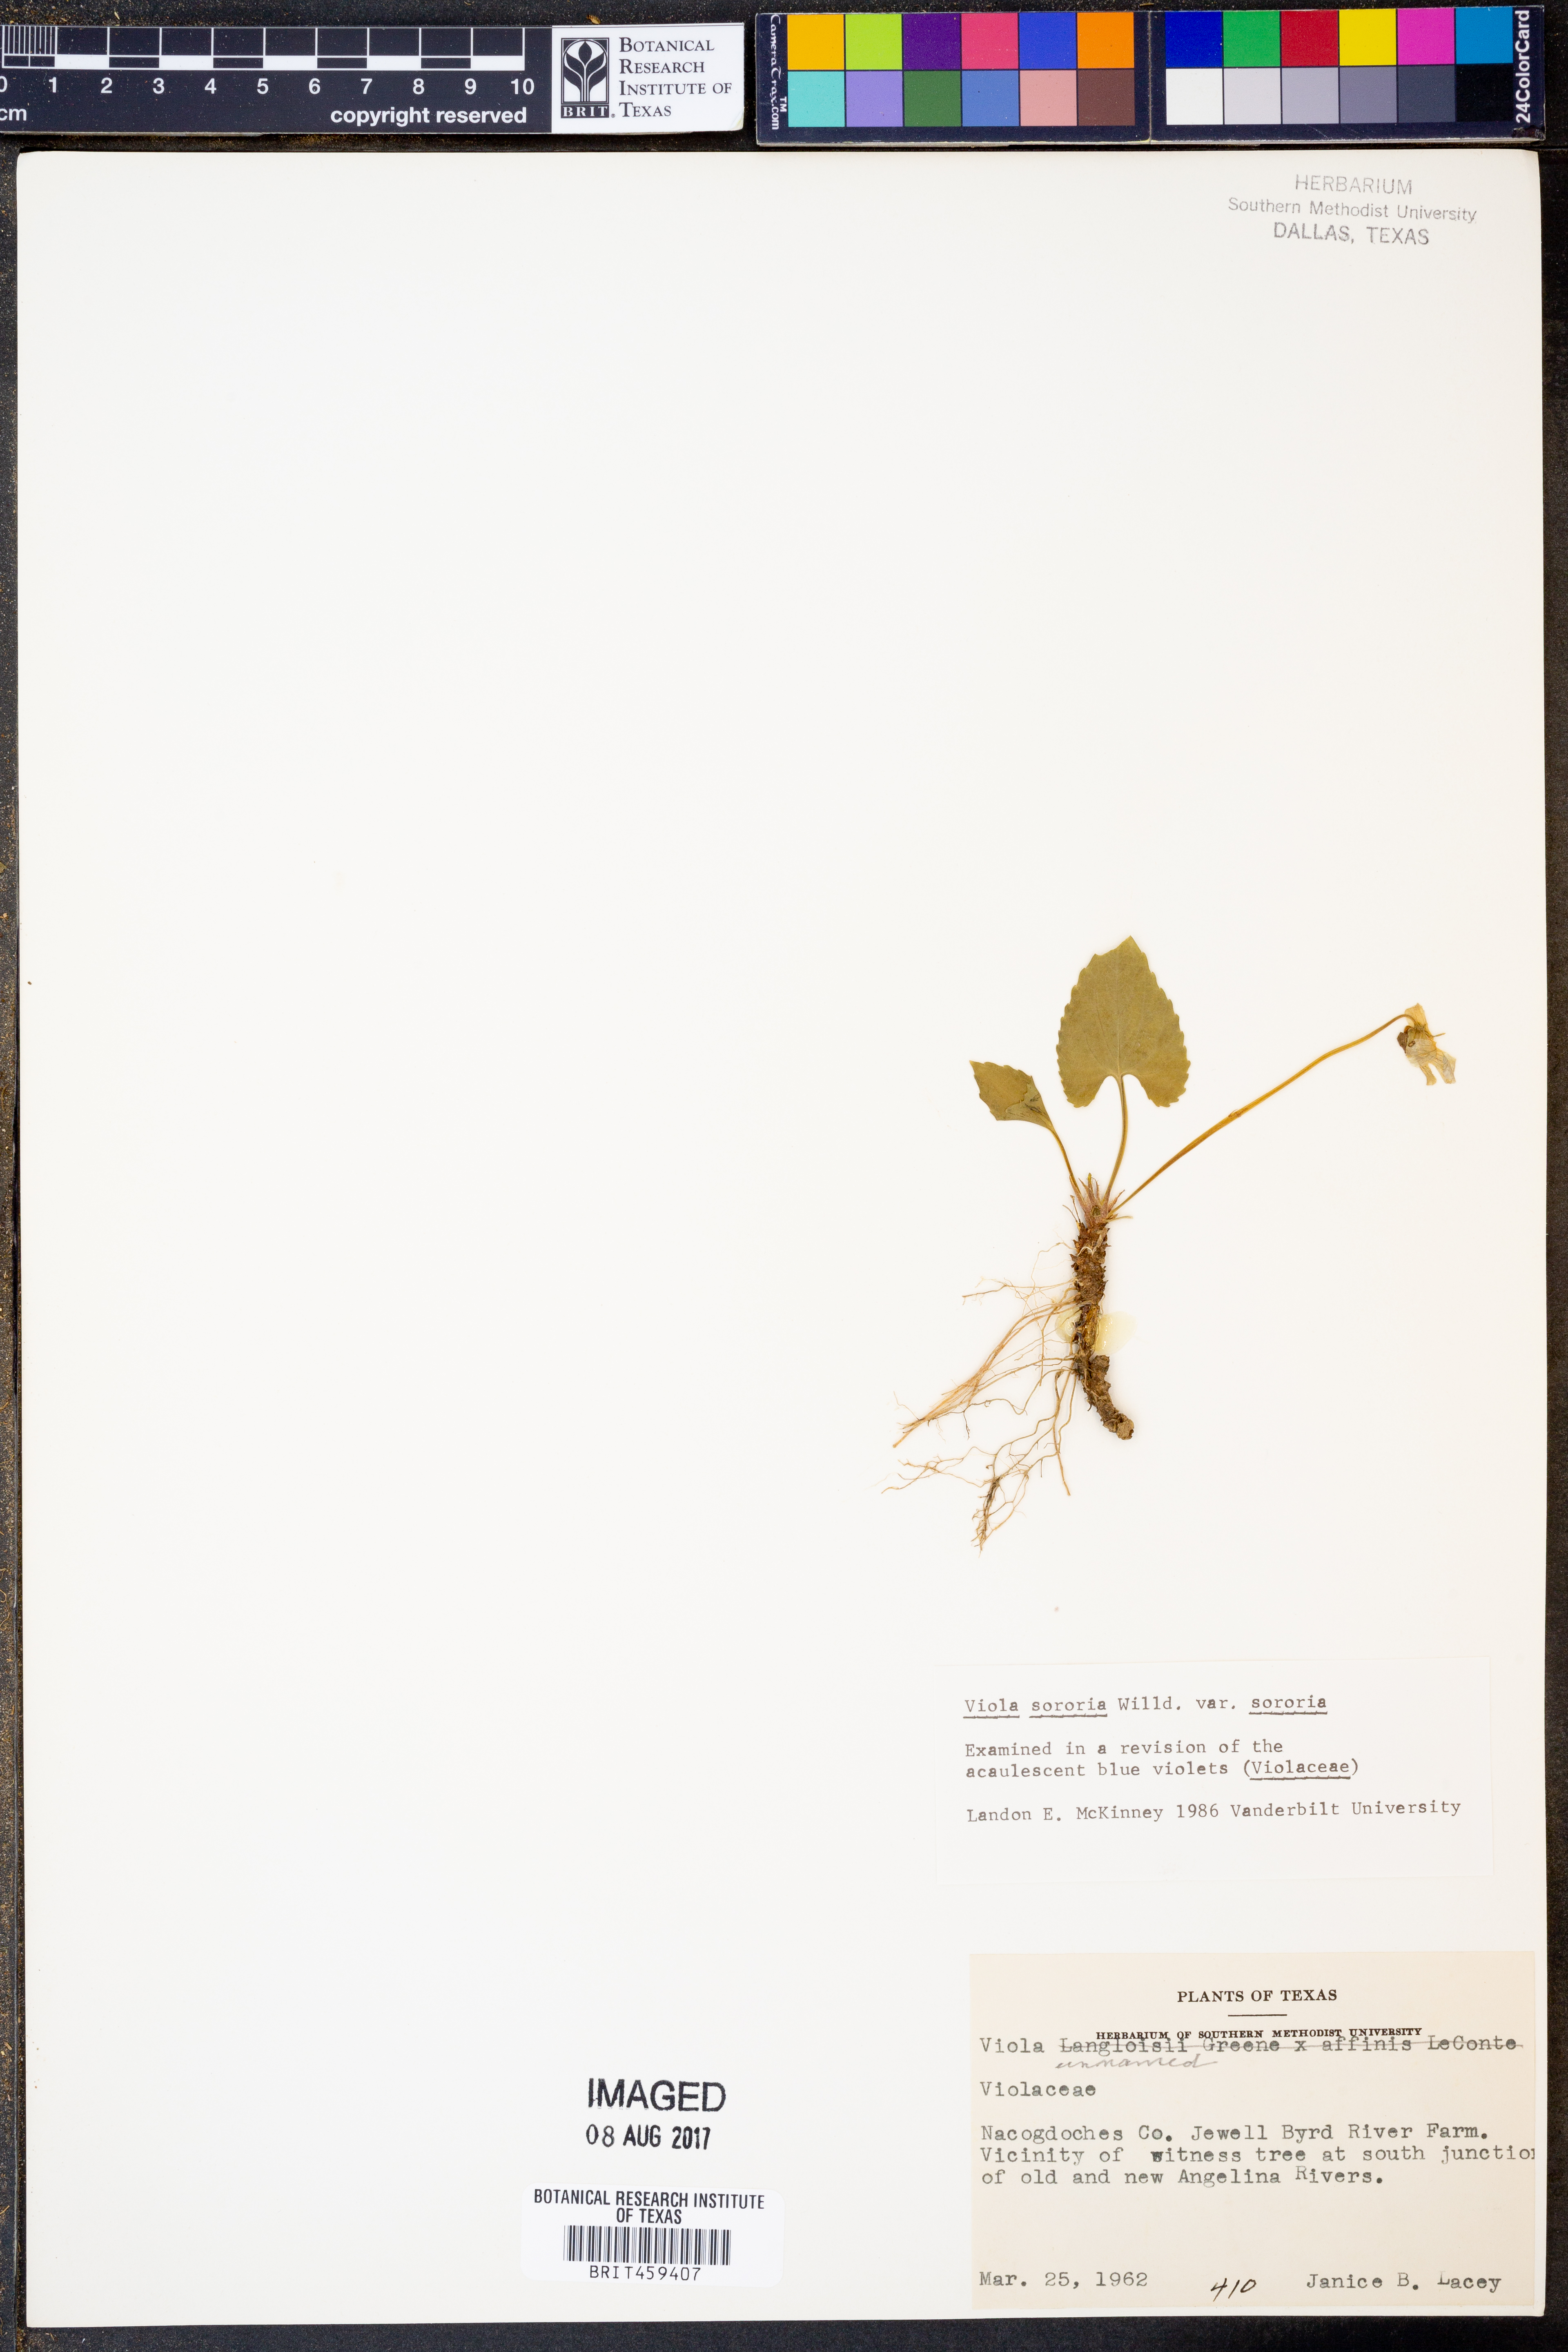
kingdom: Plantae
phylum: Tracheophyta
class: Magnoliopsida
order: Malpighiales
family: Violaceae
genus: Viola
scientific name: Viola sororia
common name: Dooryard violet
